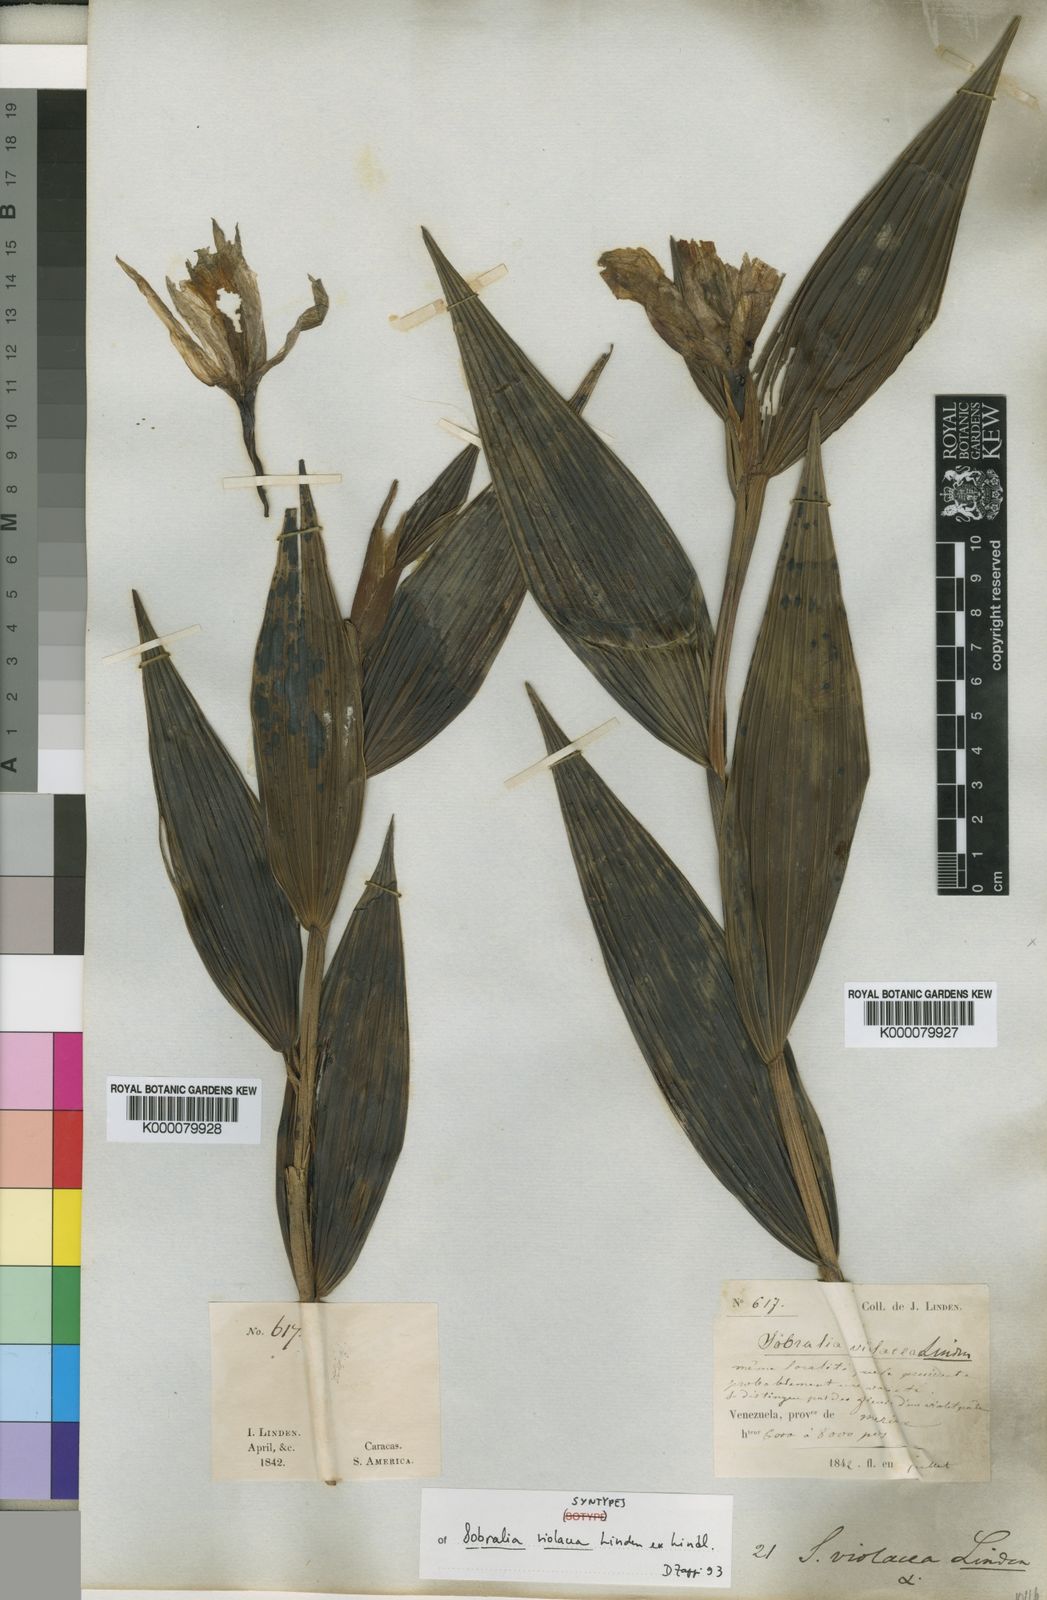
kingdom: Plantae
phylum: Tracheophyta
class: Liliopsida
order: Asparagales
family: Orchidaceae
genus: Sobralia
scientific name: Sobralia violacea
